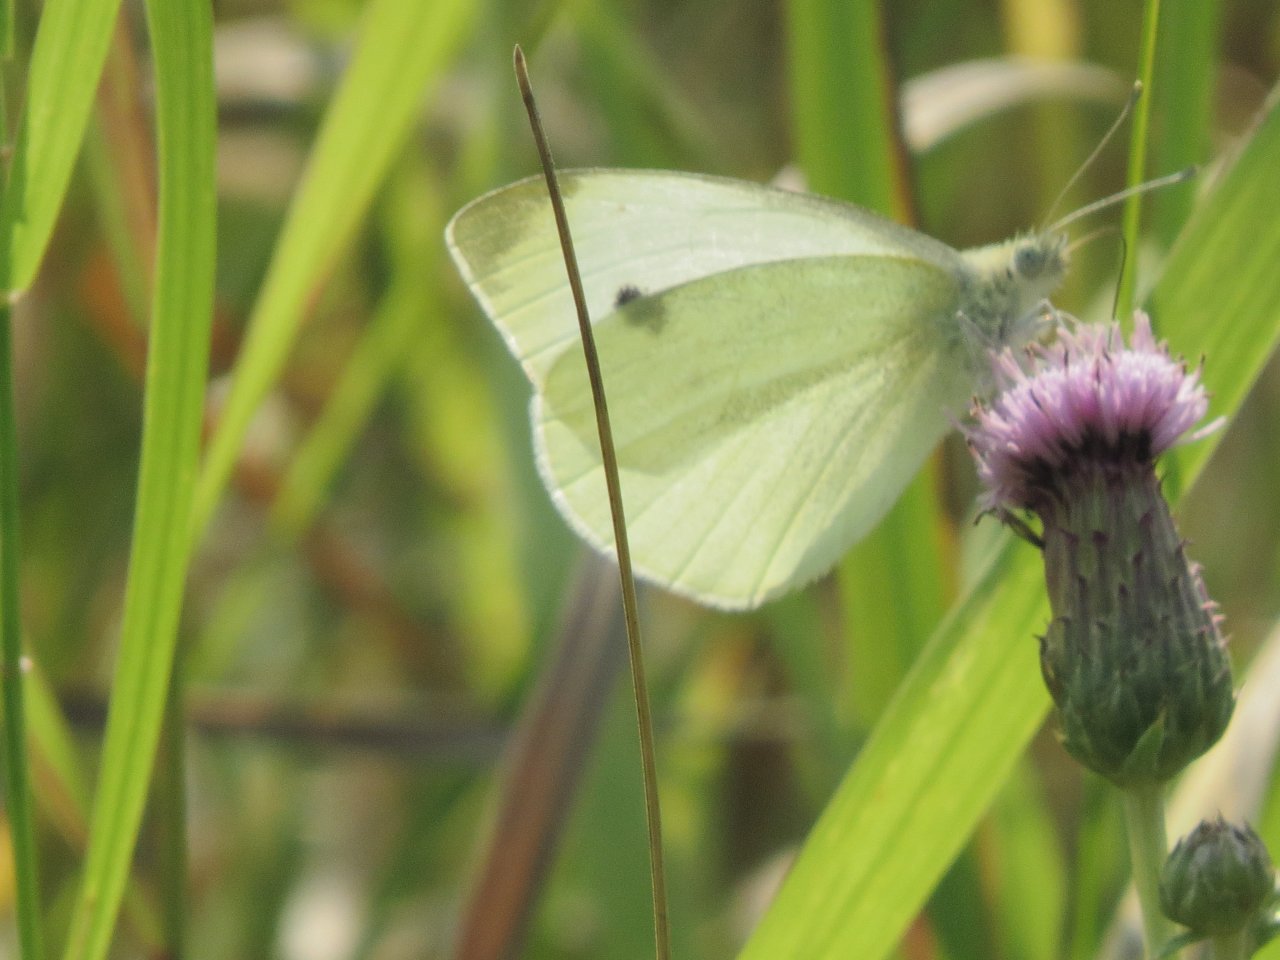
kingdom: Animalia
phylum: Arthropoda
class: Insecta
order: Lepidoptera
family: Pieridae
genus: Pieris
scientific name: Pieris rapae
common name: Cabbage White
